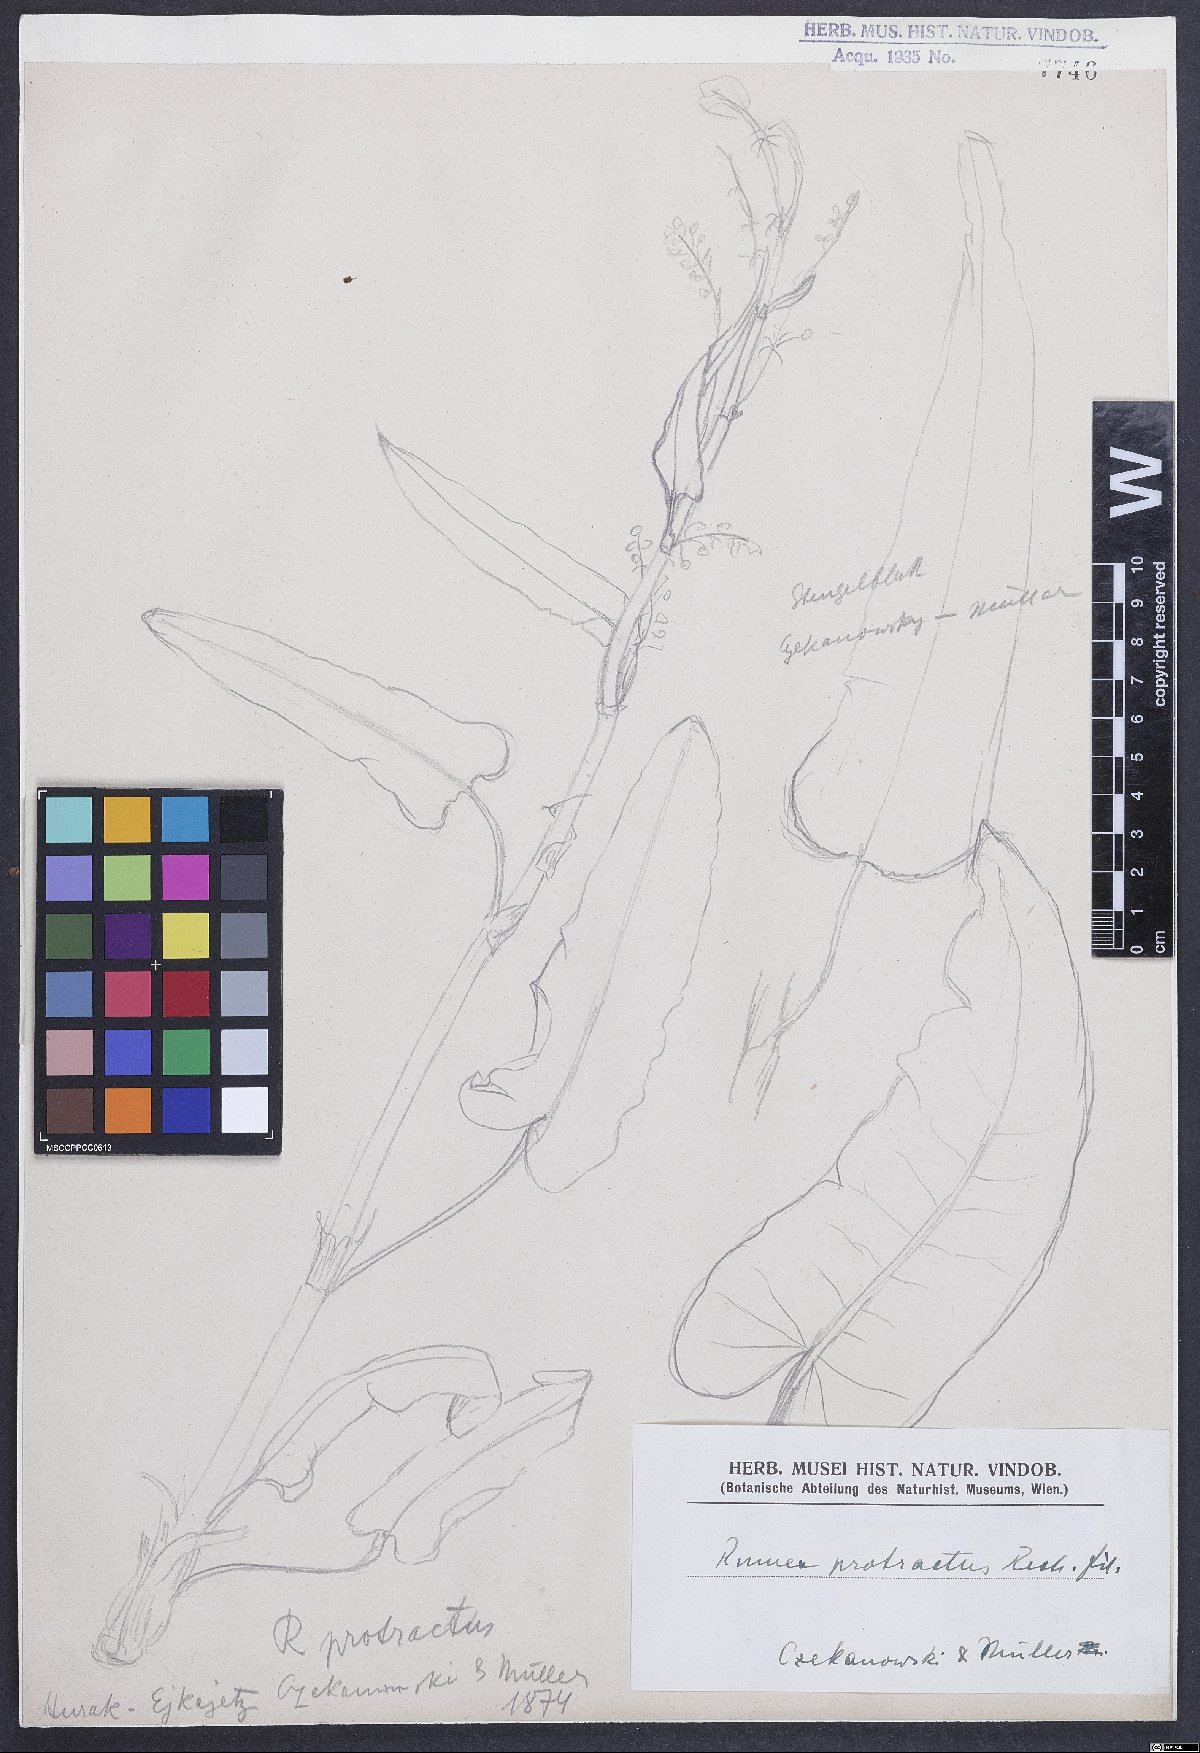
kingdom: Plantae
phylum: Tracheophyta
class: Magnoliopsida
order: Caryophyllales
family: Polygonaceae
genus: Rumex
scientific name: Rumex aquaticus
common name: Scottish dock
